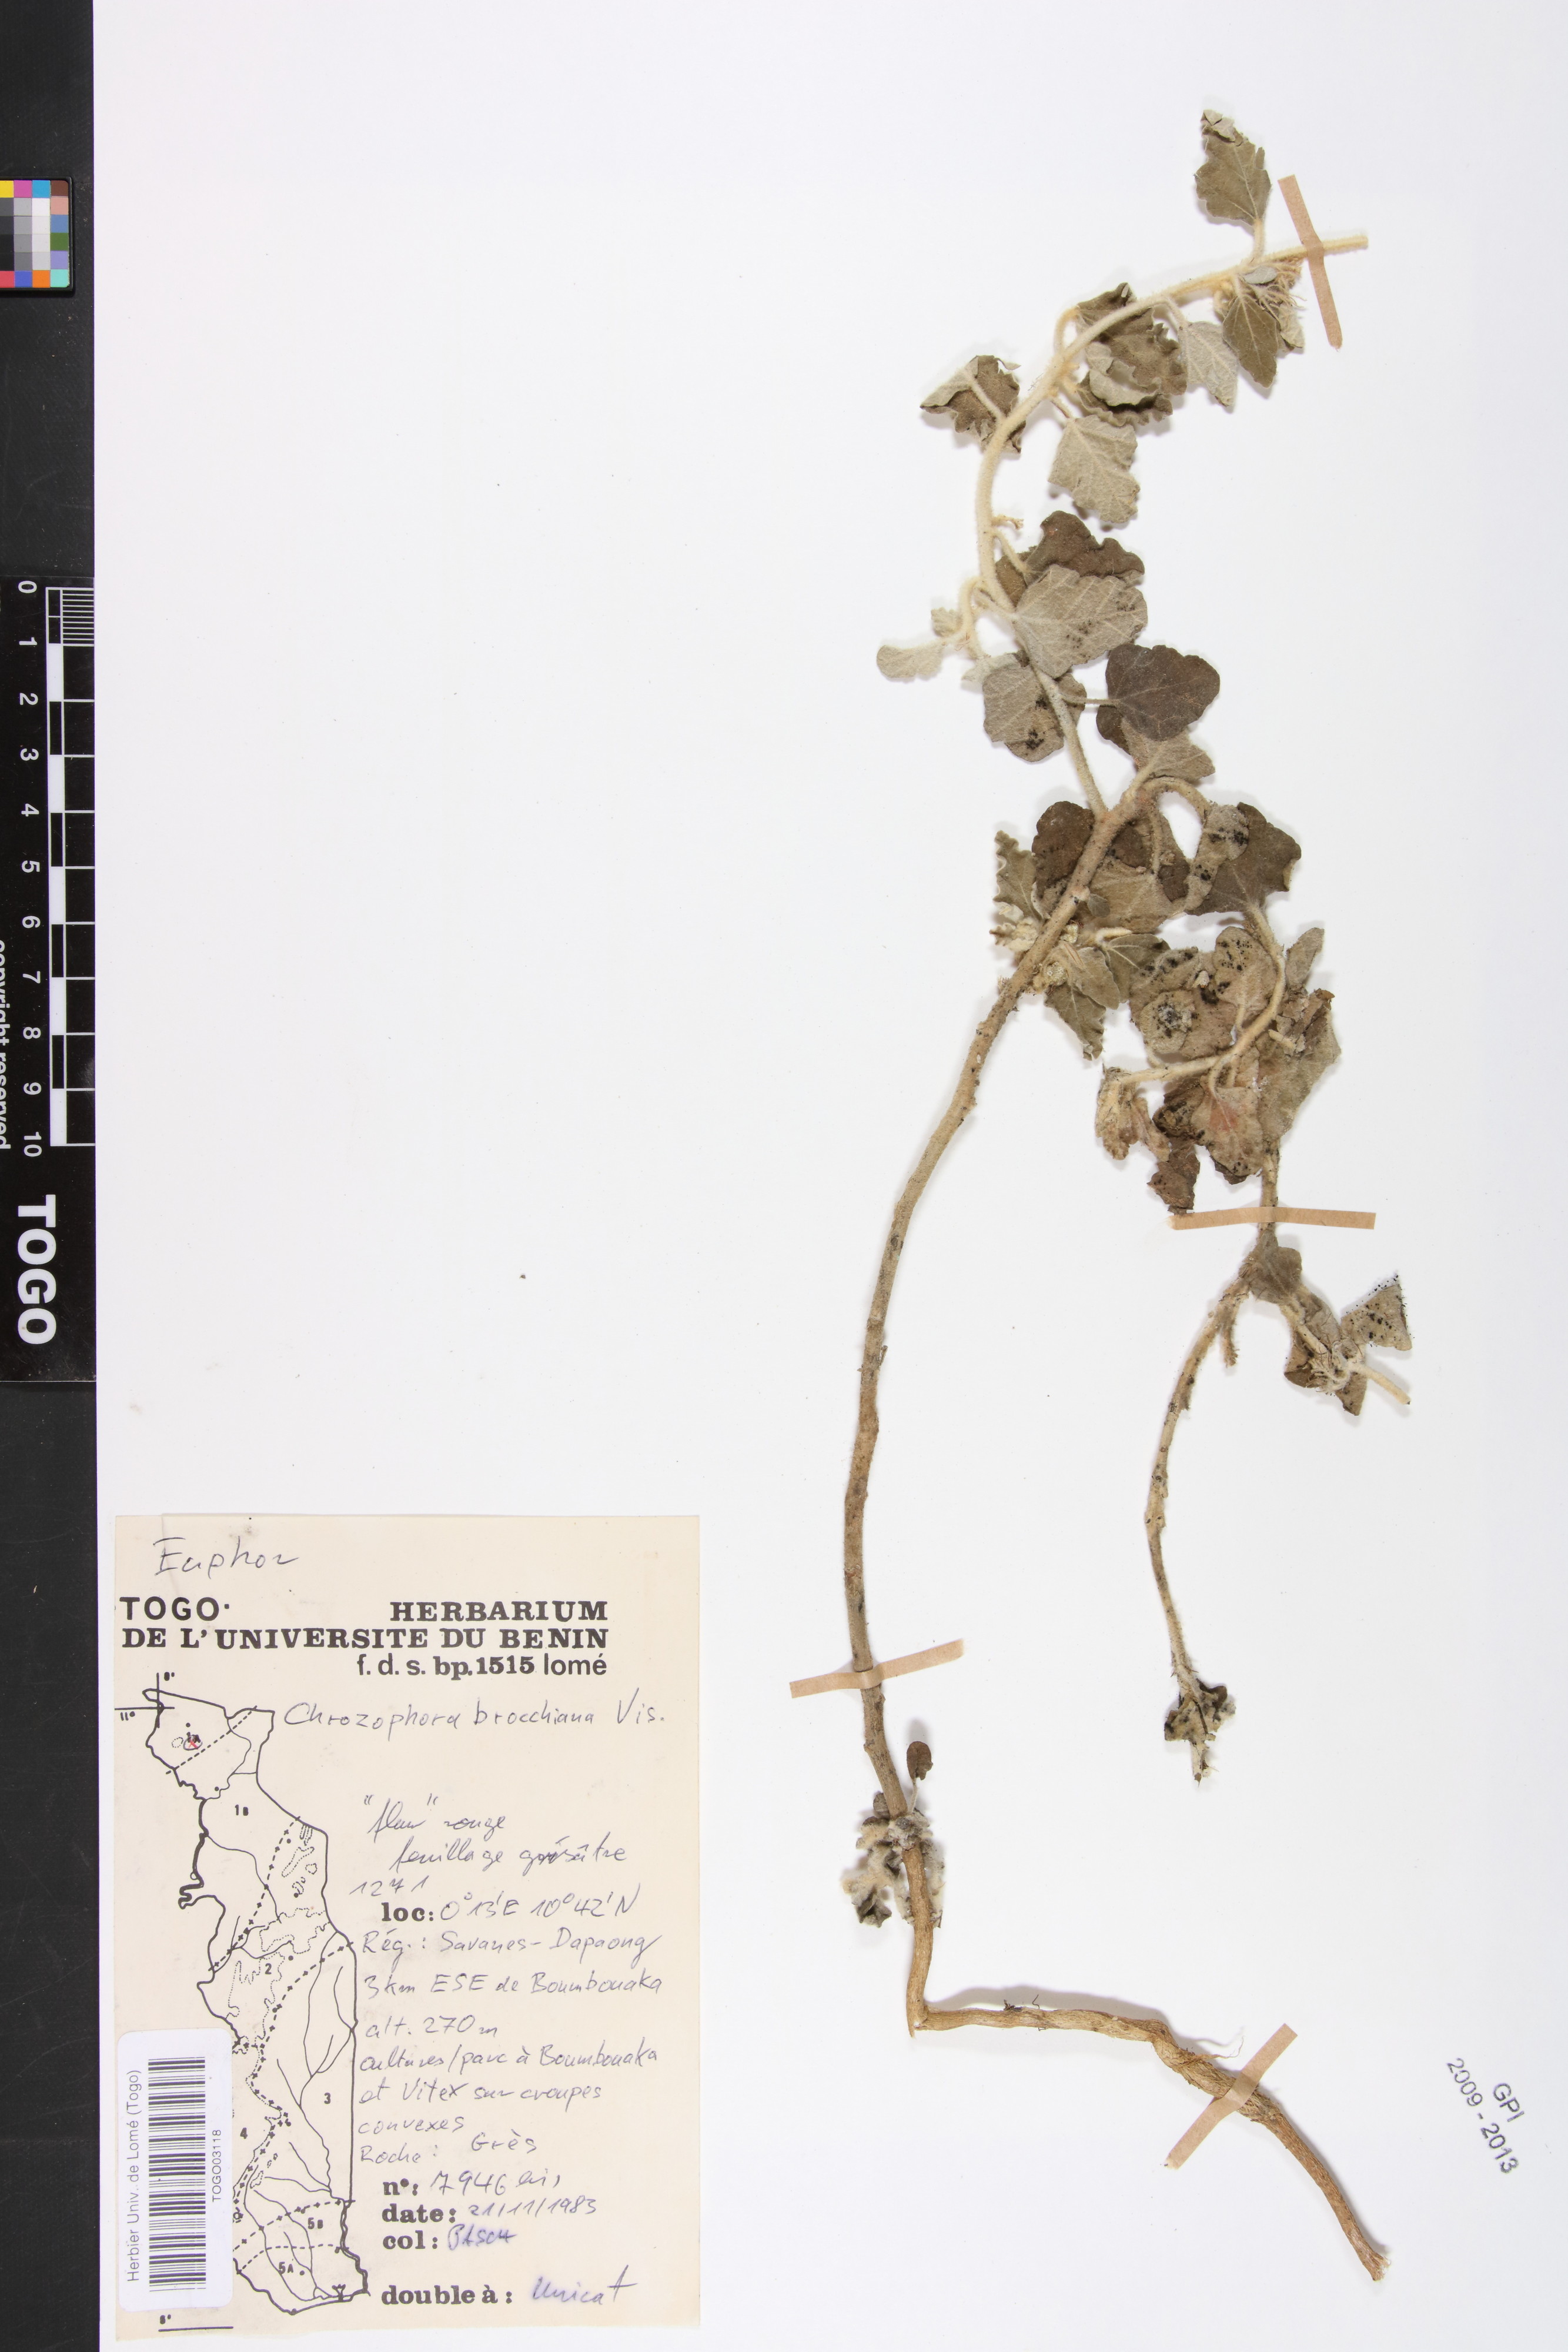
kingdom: Plantae
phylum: Tracheophyta
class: Magnoliopsida
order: Malpighiales
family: Euphorbiaceae
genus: Chrozophora
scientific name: Chrozophora brocchiana
